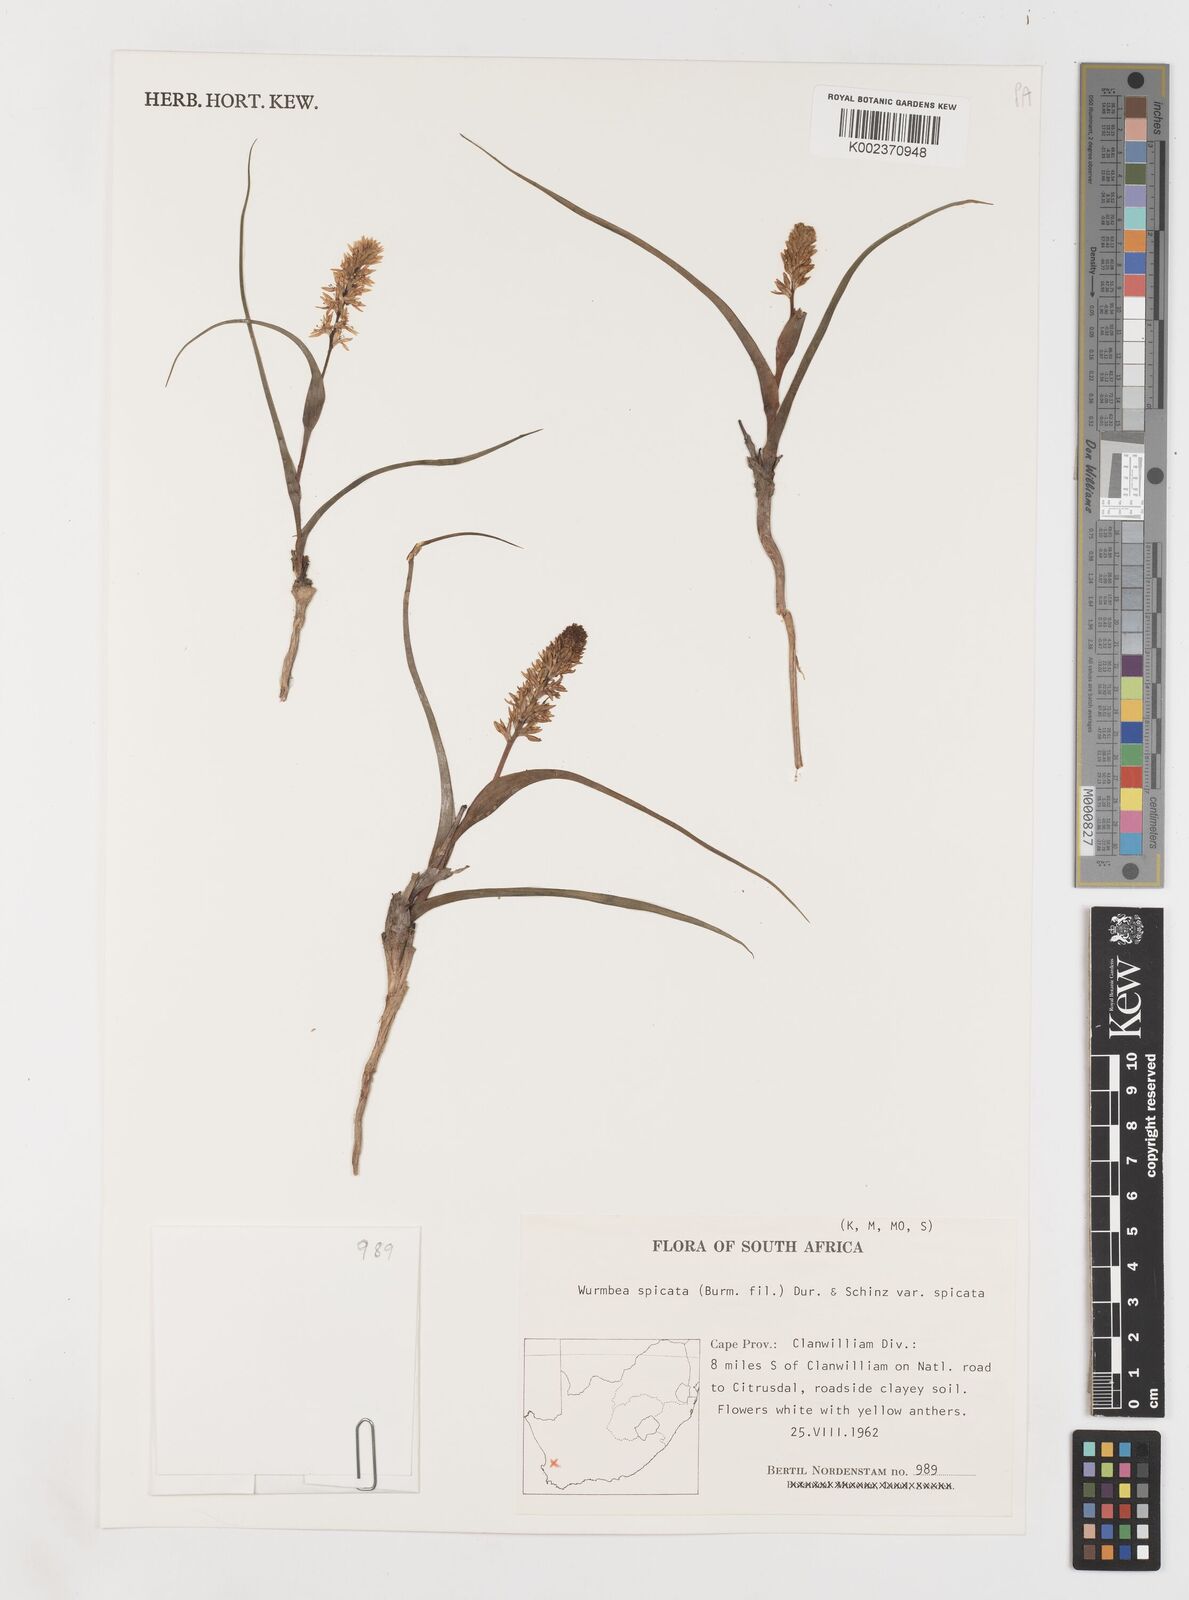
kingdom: Plantae
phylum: Tracheophyta
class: Liliopsida
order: Liliales
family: Colchicaceae
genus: Wurmbea
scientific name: Wurmbea spicata
